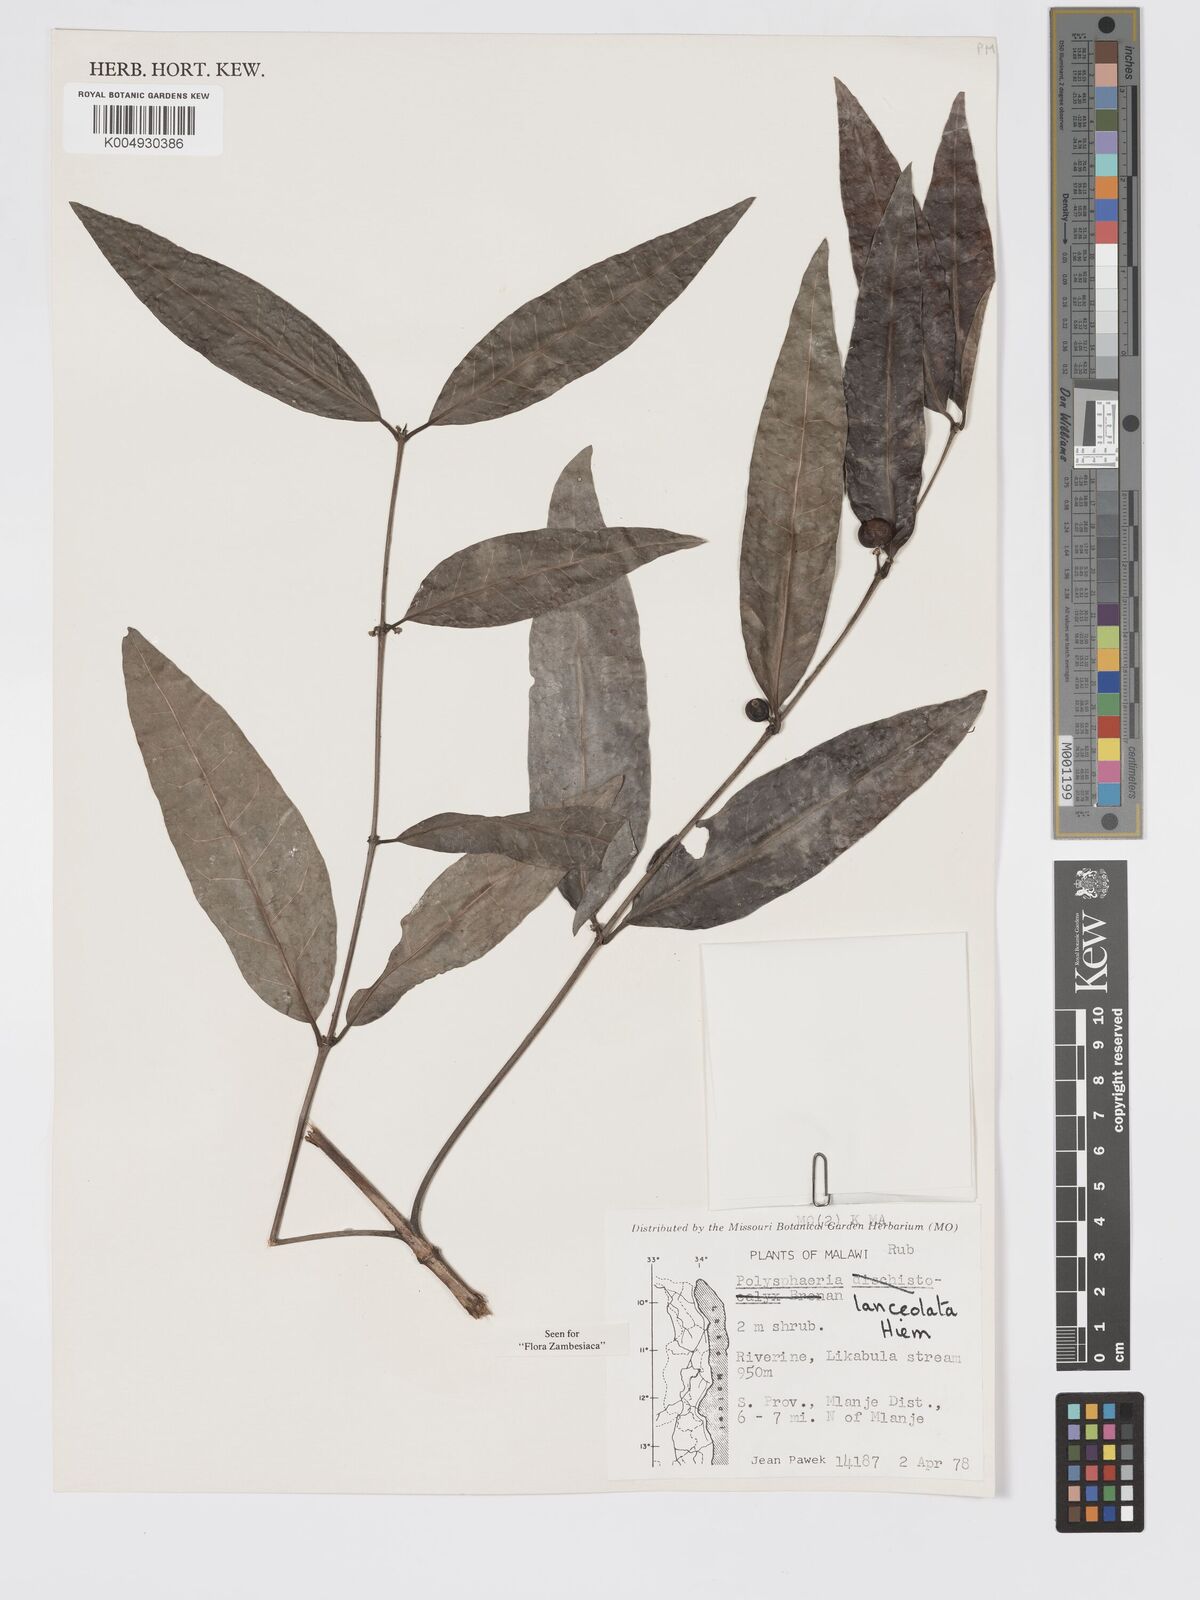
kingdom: Plantae
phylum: Tracheophyta
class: Magnoliopsida
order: Gentianales
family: Rubiaceae
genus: Polysphaeria
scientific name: Polysphaeria lanceolata
